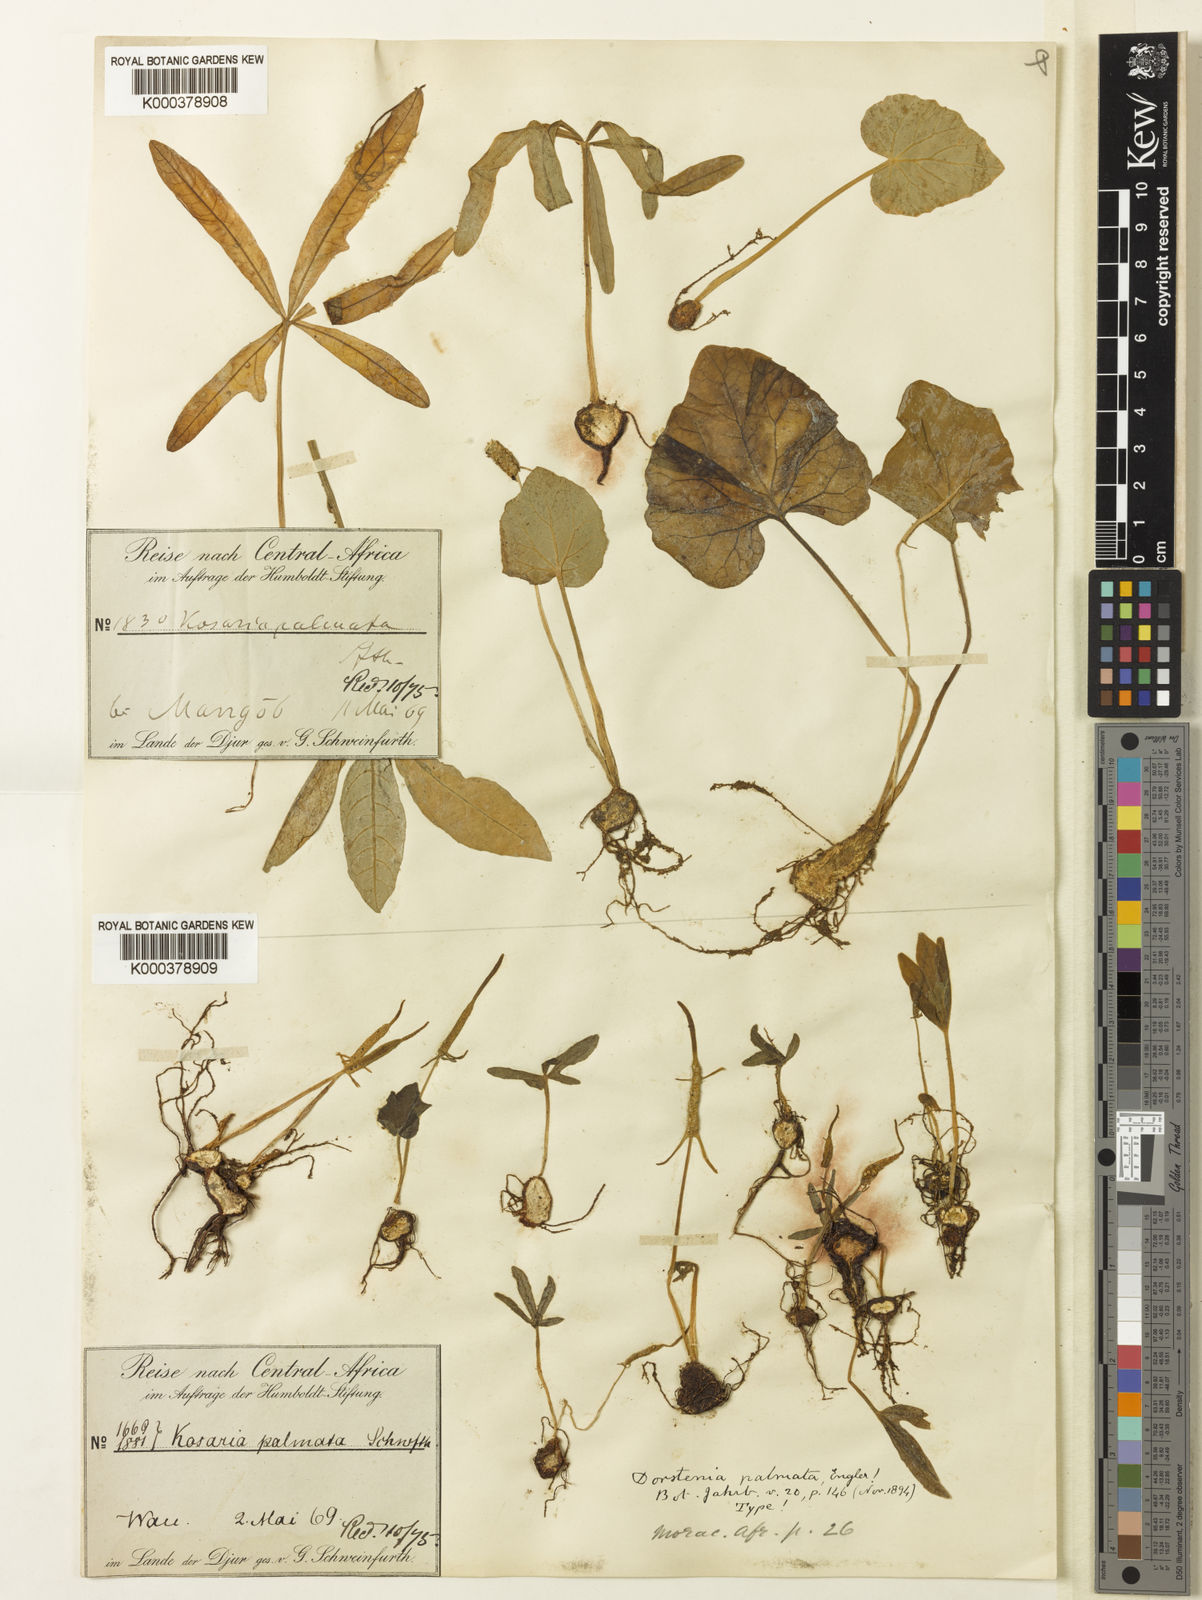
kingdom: Plantae
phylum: Tracheophyta
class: Magnoliopsida
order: Rosales
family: Moraceae
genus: Dorstenia
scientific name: Dorstenia barnimiana
